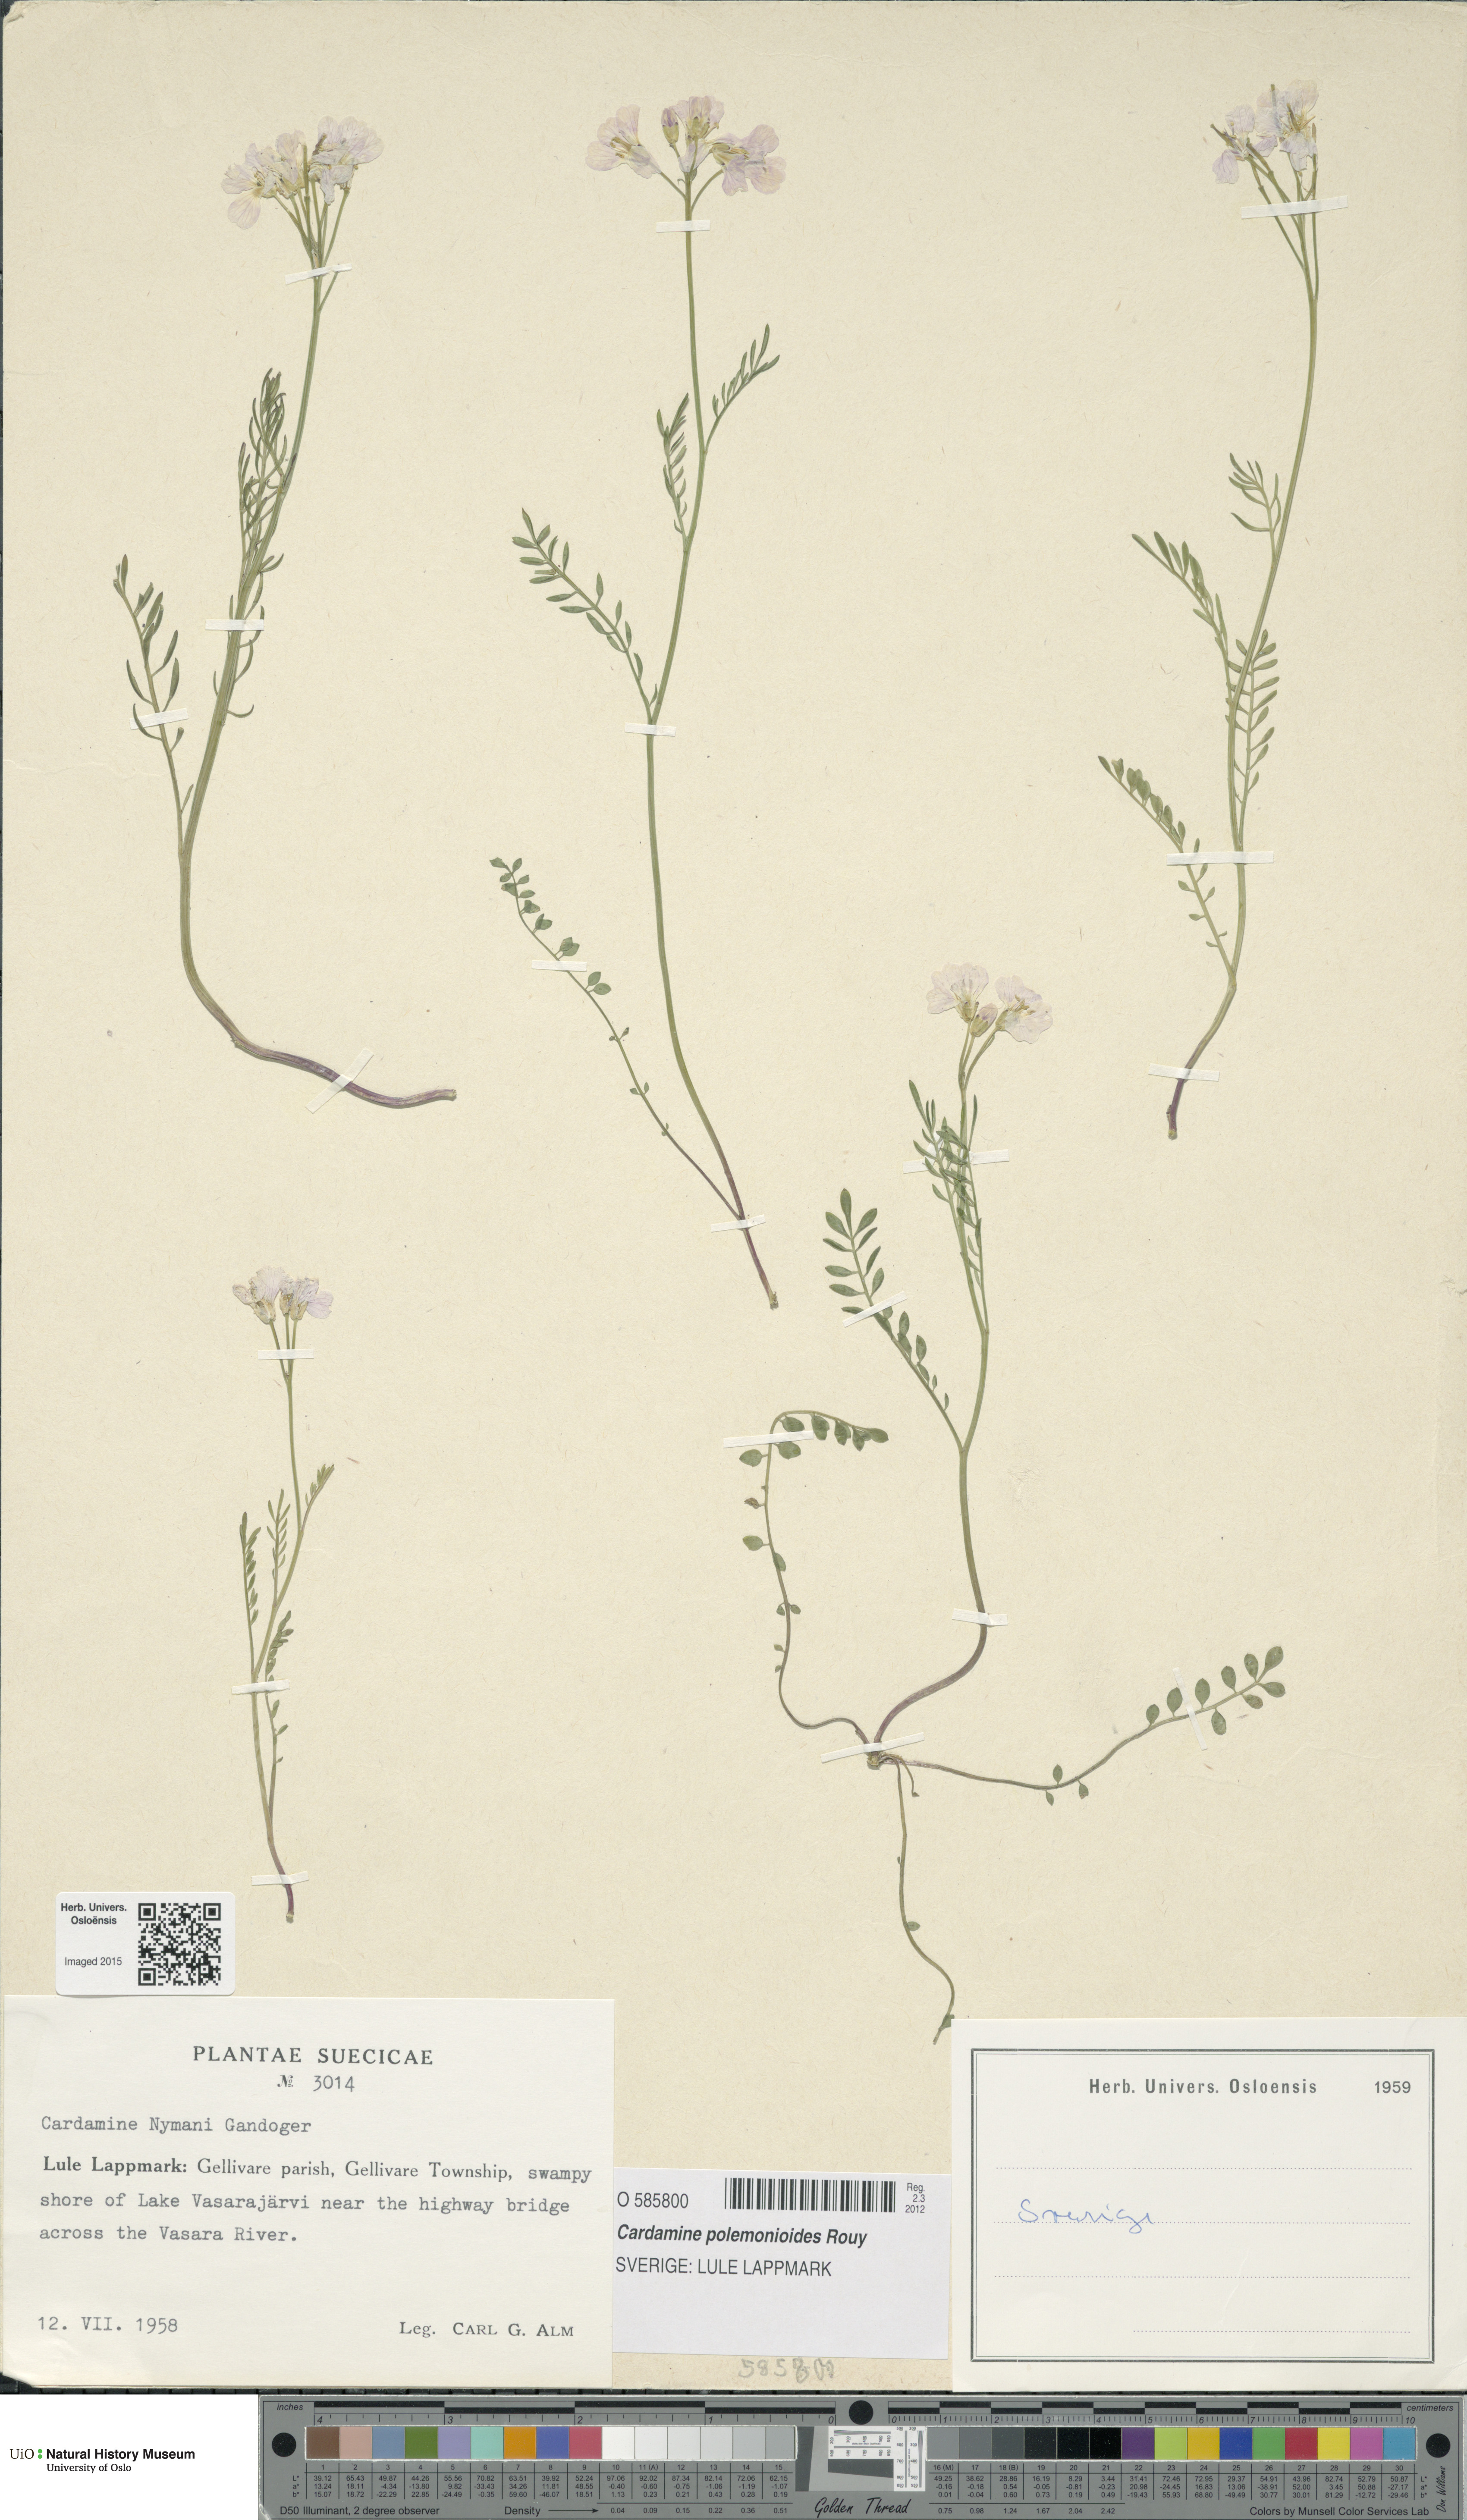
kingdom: Plantae
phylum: Tracheophyta
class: Magnoliopsida
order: Brassicales
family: Brassicaceae
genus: Cardamine
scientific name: Cardamine nymanii
